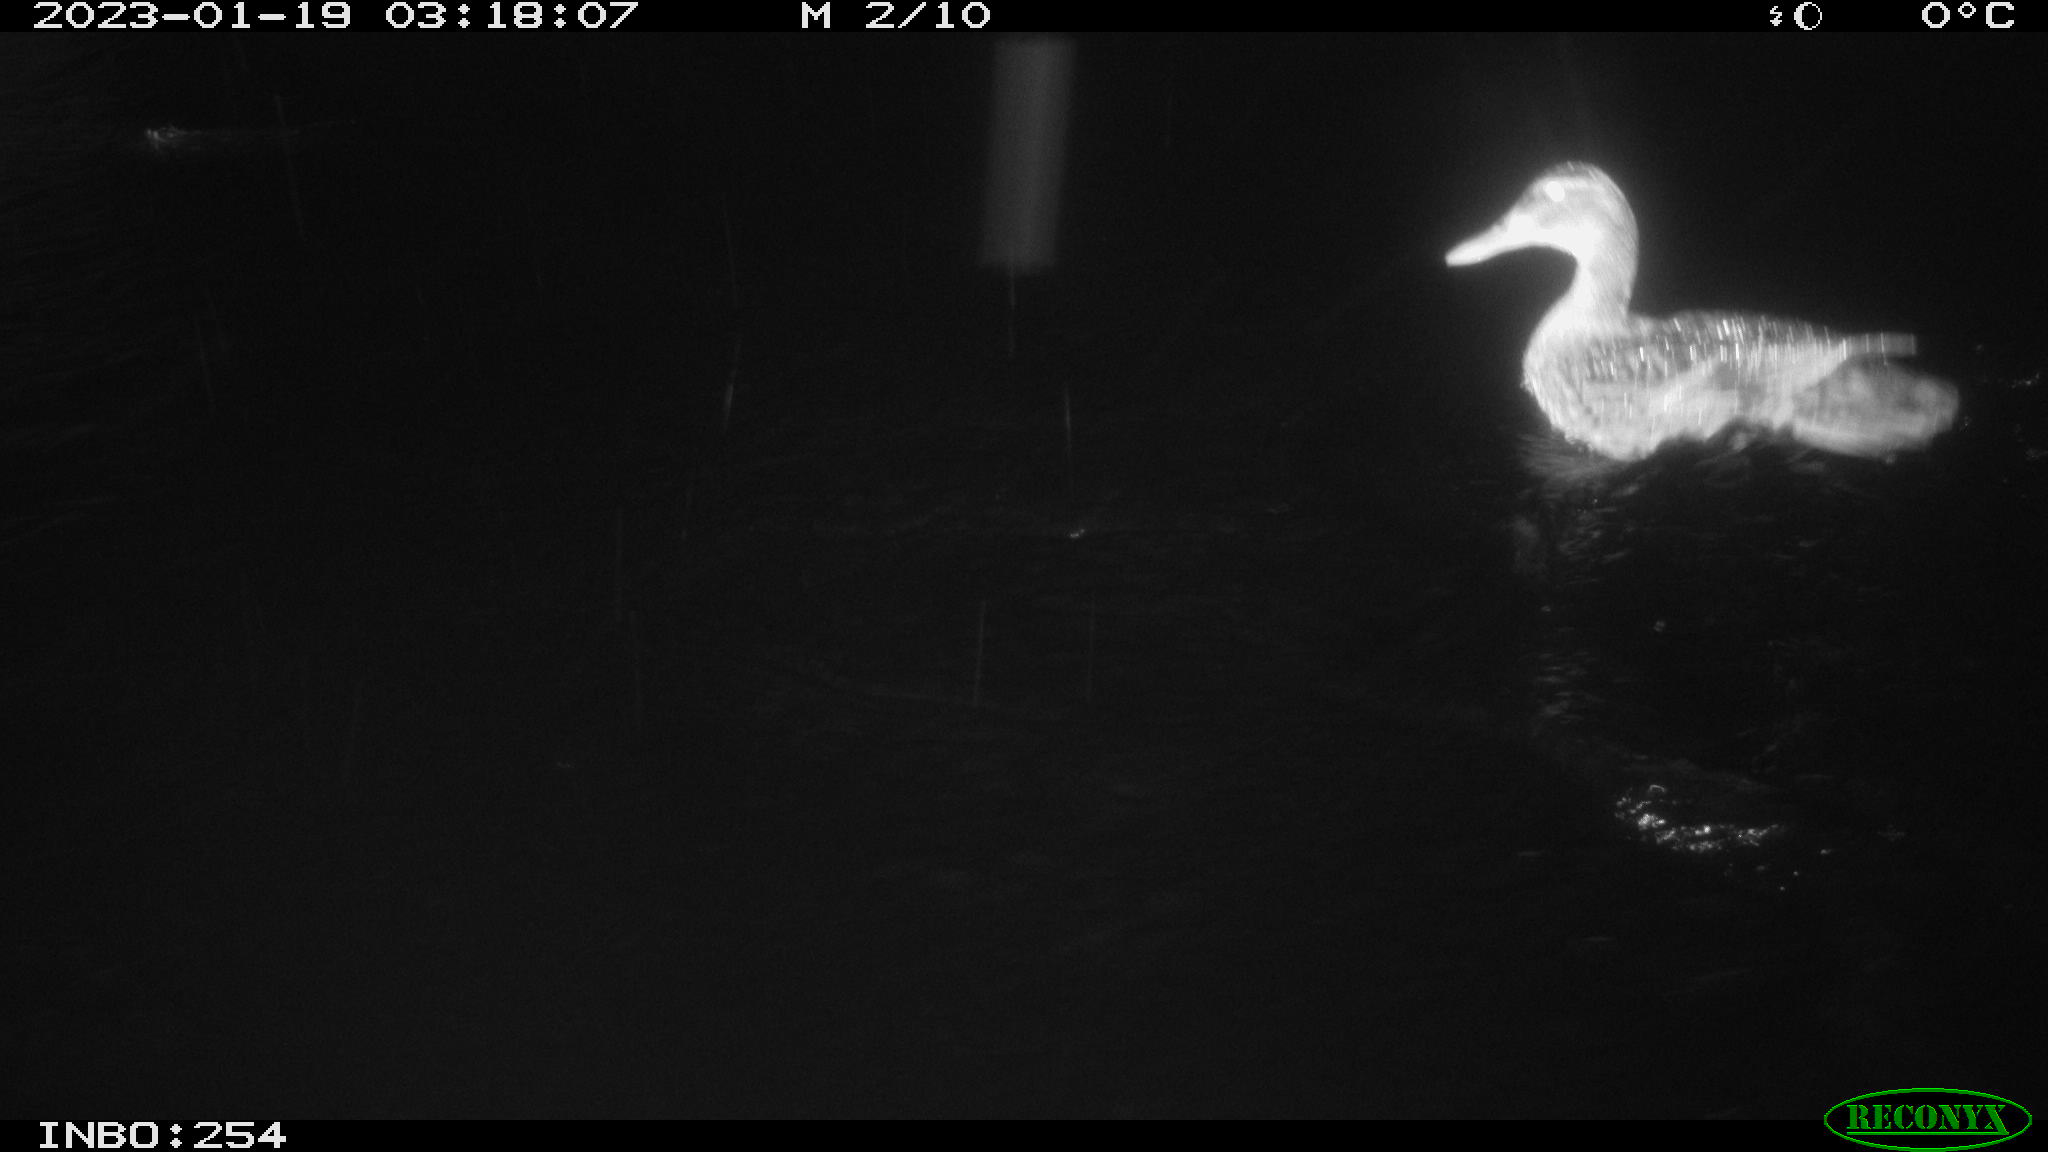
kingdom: Animalia
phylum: Chordata
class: Aves
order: Anseriformes
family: Anatidae
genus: Anas
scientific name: Anas
